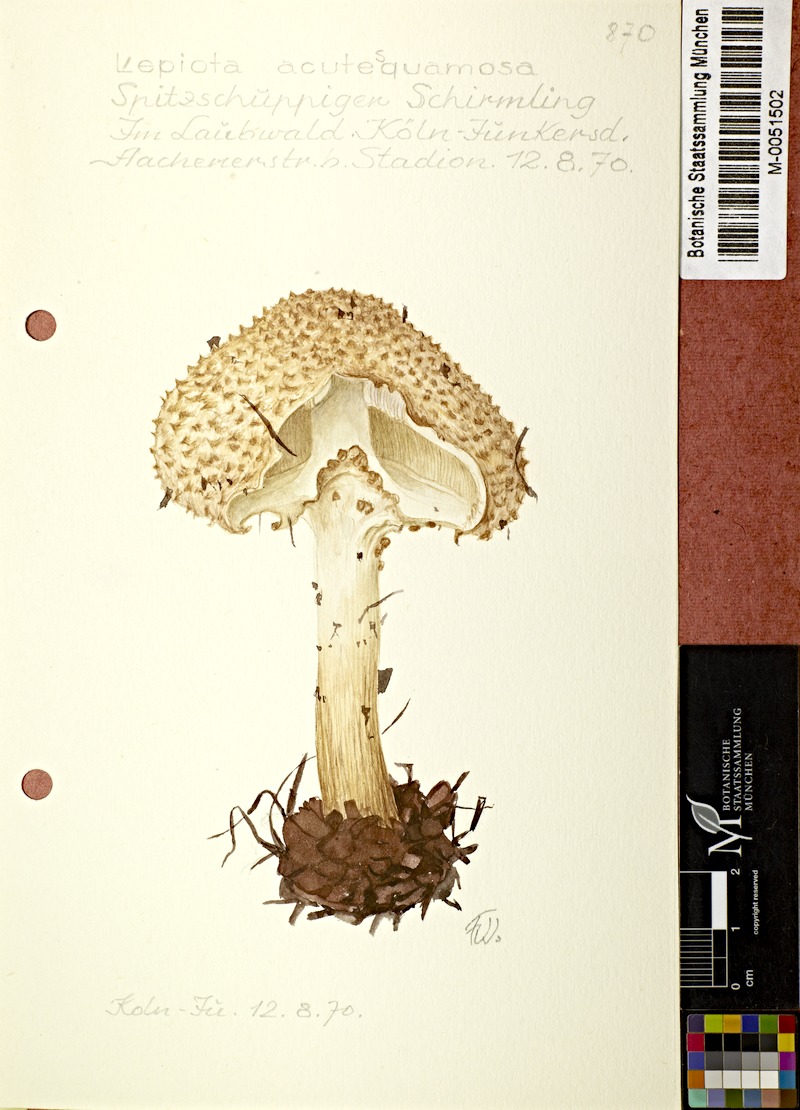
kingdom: Fungi
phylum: Basidiomycota
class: Agaricomycetes
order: Agaricales
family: Agaricaceae
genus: Echinoderma
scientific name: Echinoderma asperum
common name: Freckled dapperling
